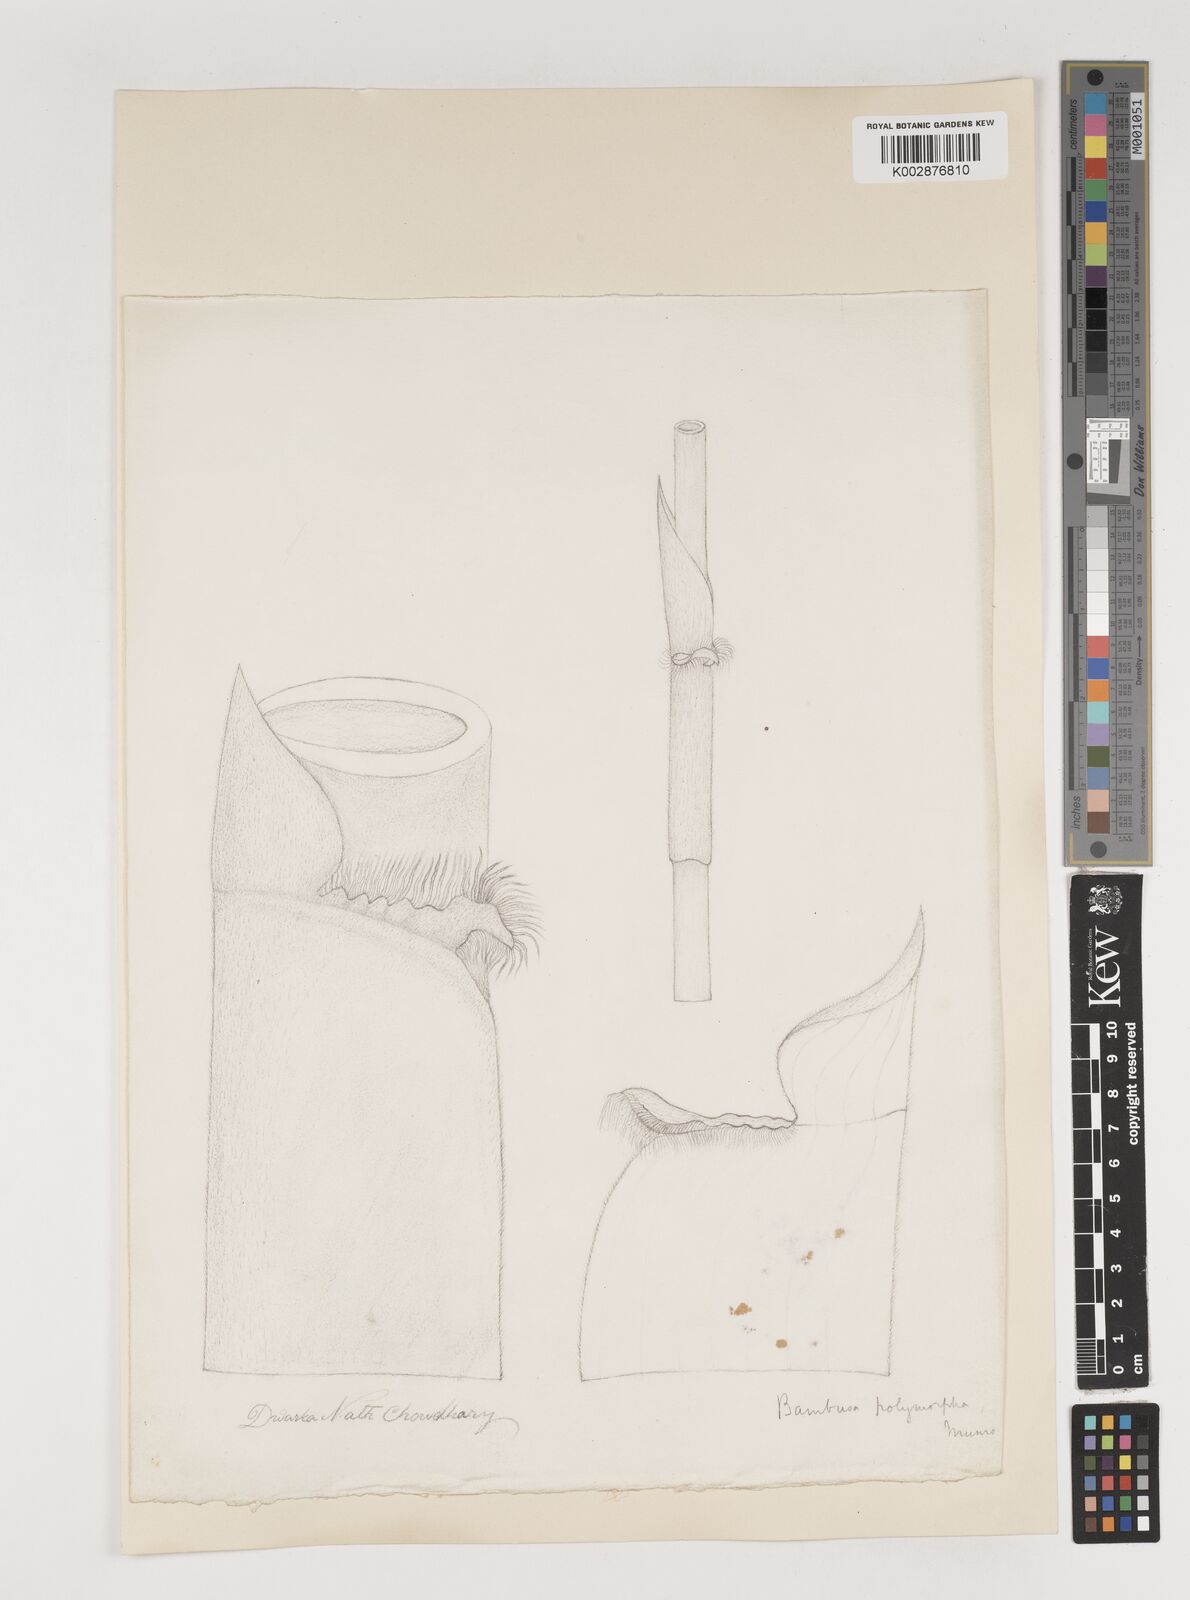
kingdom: Plantae
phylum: Tracheophyta
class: Liliopsida
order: Poales
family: Poaceae
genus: Bambusa
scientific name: Bambusa polymorpha
